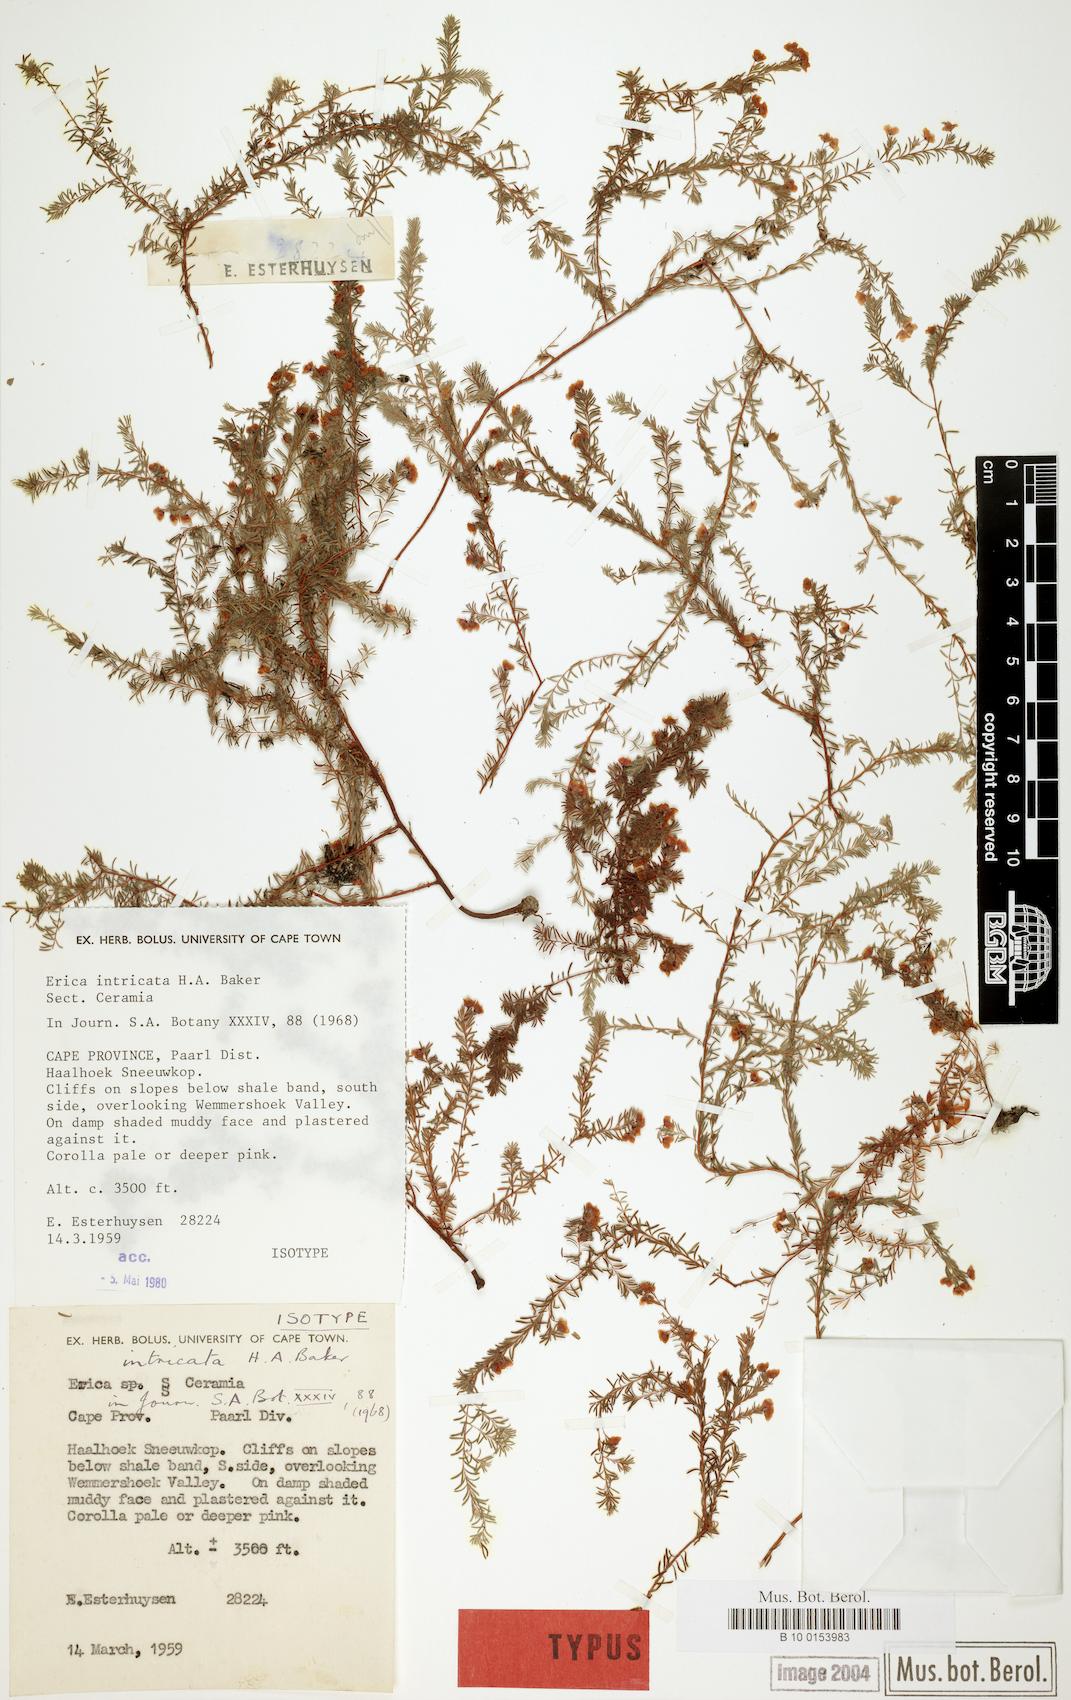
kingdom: Plantae
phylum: Tracheophyta
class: Magnoliopsida
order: Ericales
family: Ericaceae
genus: Erica
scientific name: Erica intricata
